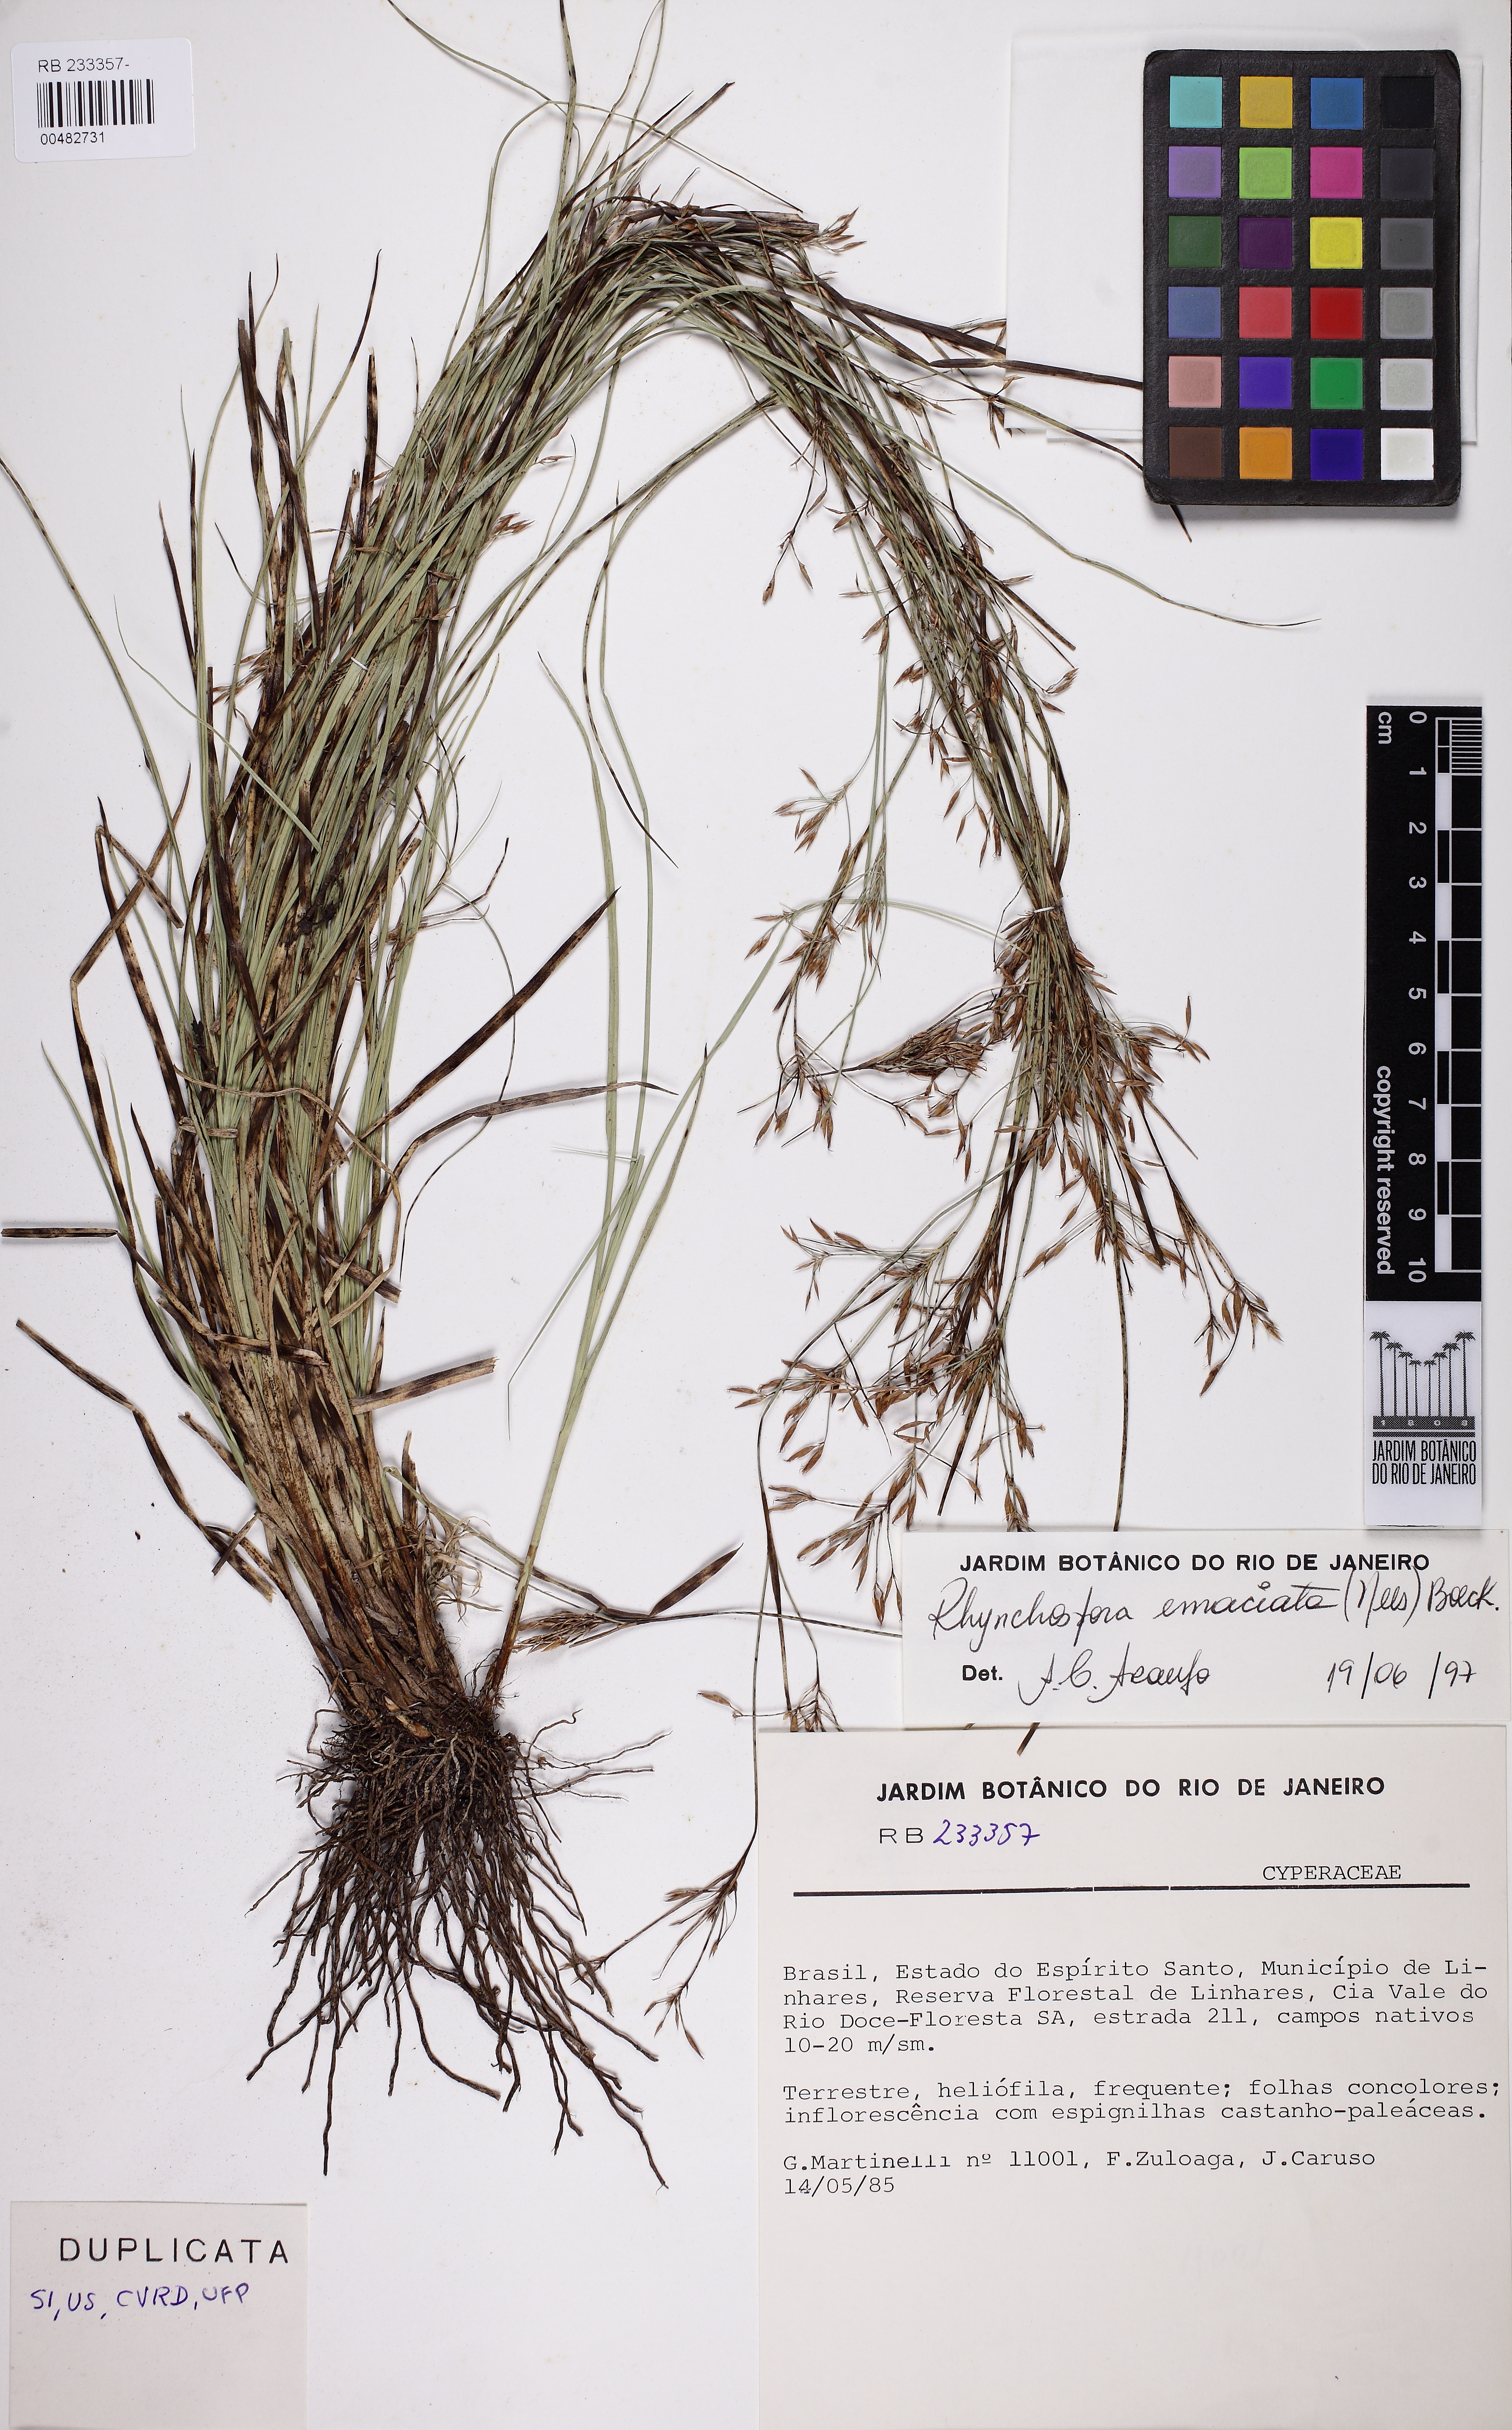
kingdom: Plantae
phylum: Tracheophyta
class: Liliopsida
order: Poales
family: Cyperaceae
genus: Rhynchospora
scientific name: Rhynchospora stricta
